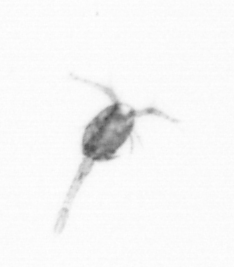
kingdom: Animalia
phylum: Arthropoda
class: Copepoda
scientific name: Copepoda
